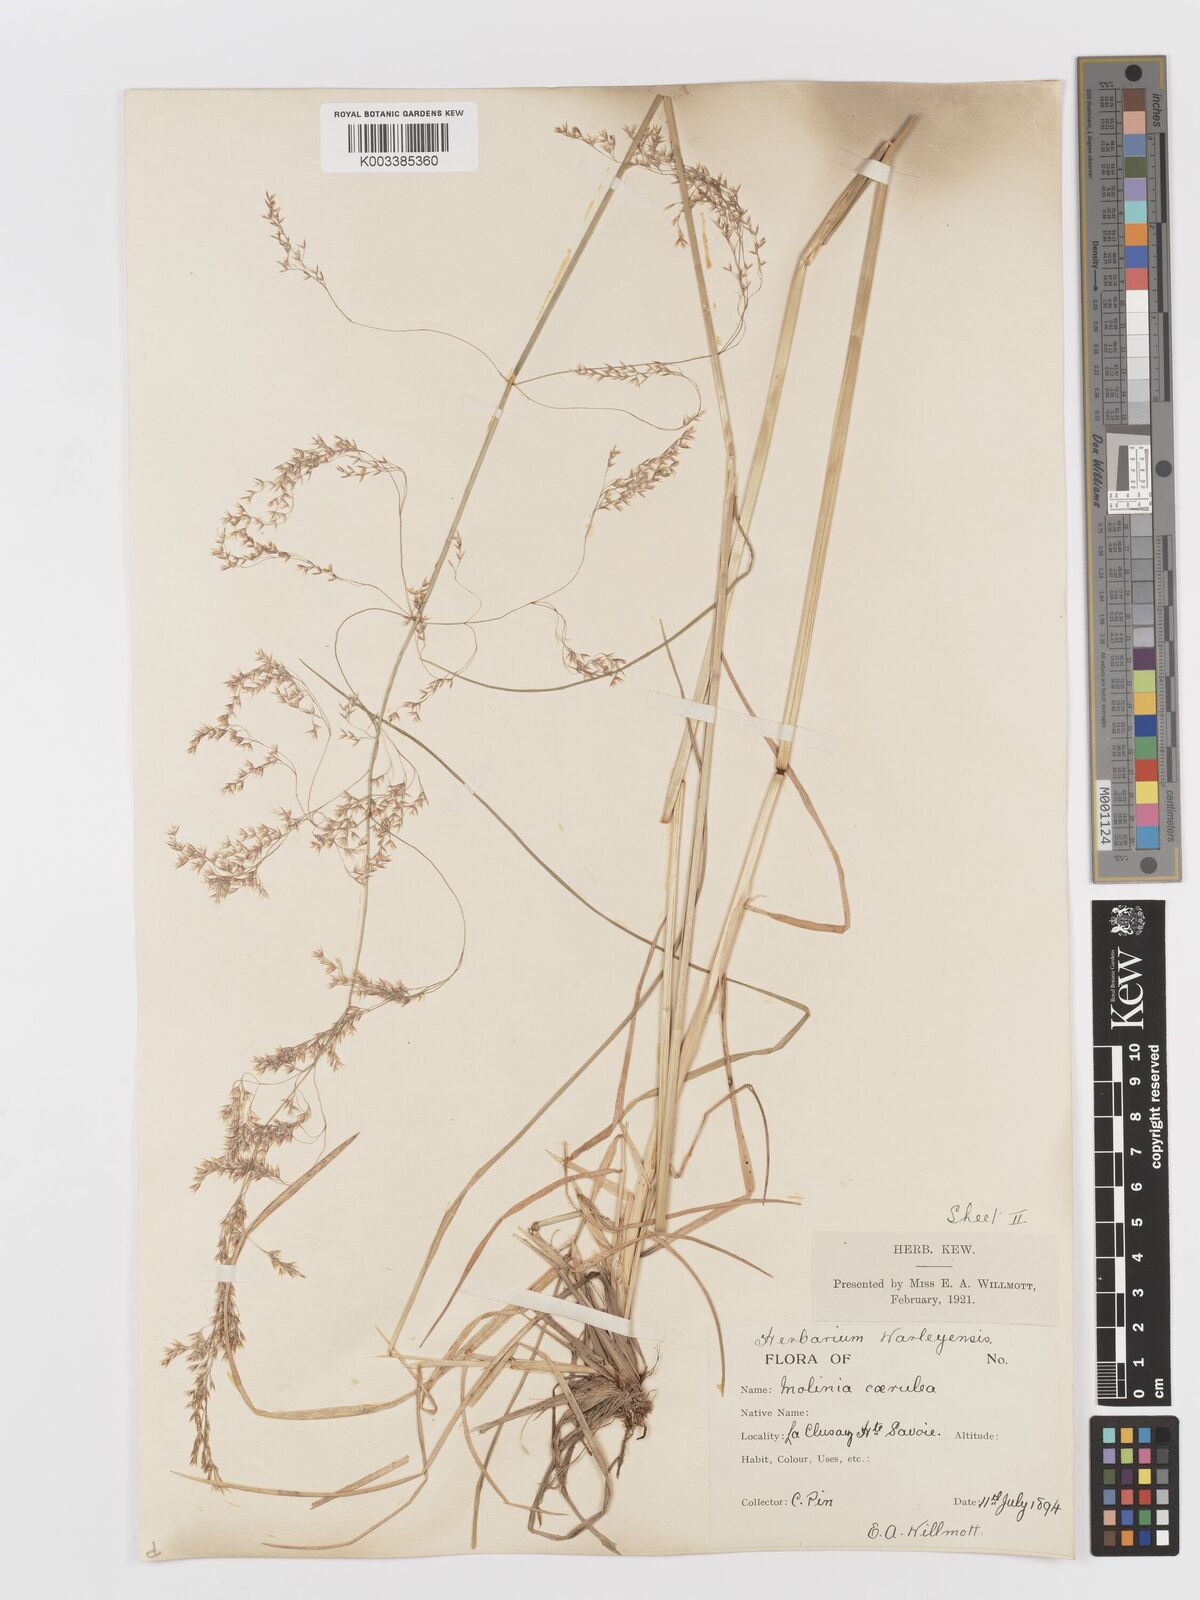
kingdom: Plantae
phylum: Tracheophyta
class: Liliopsida
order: Poales
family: Poaceae
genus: Deschampsia
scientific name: Deschampsia cespitosa
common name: Tufted hair-grass
